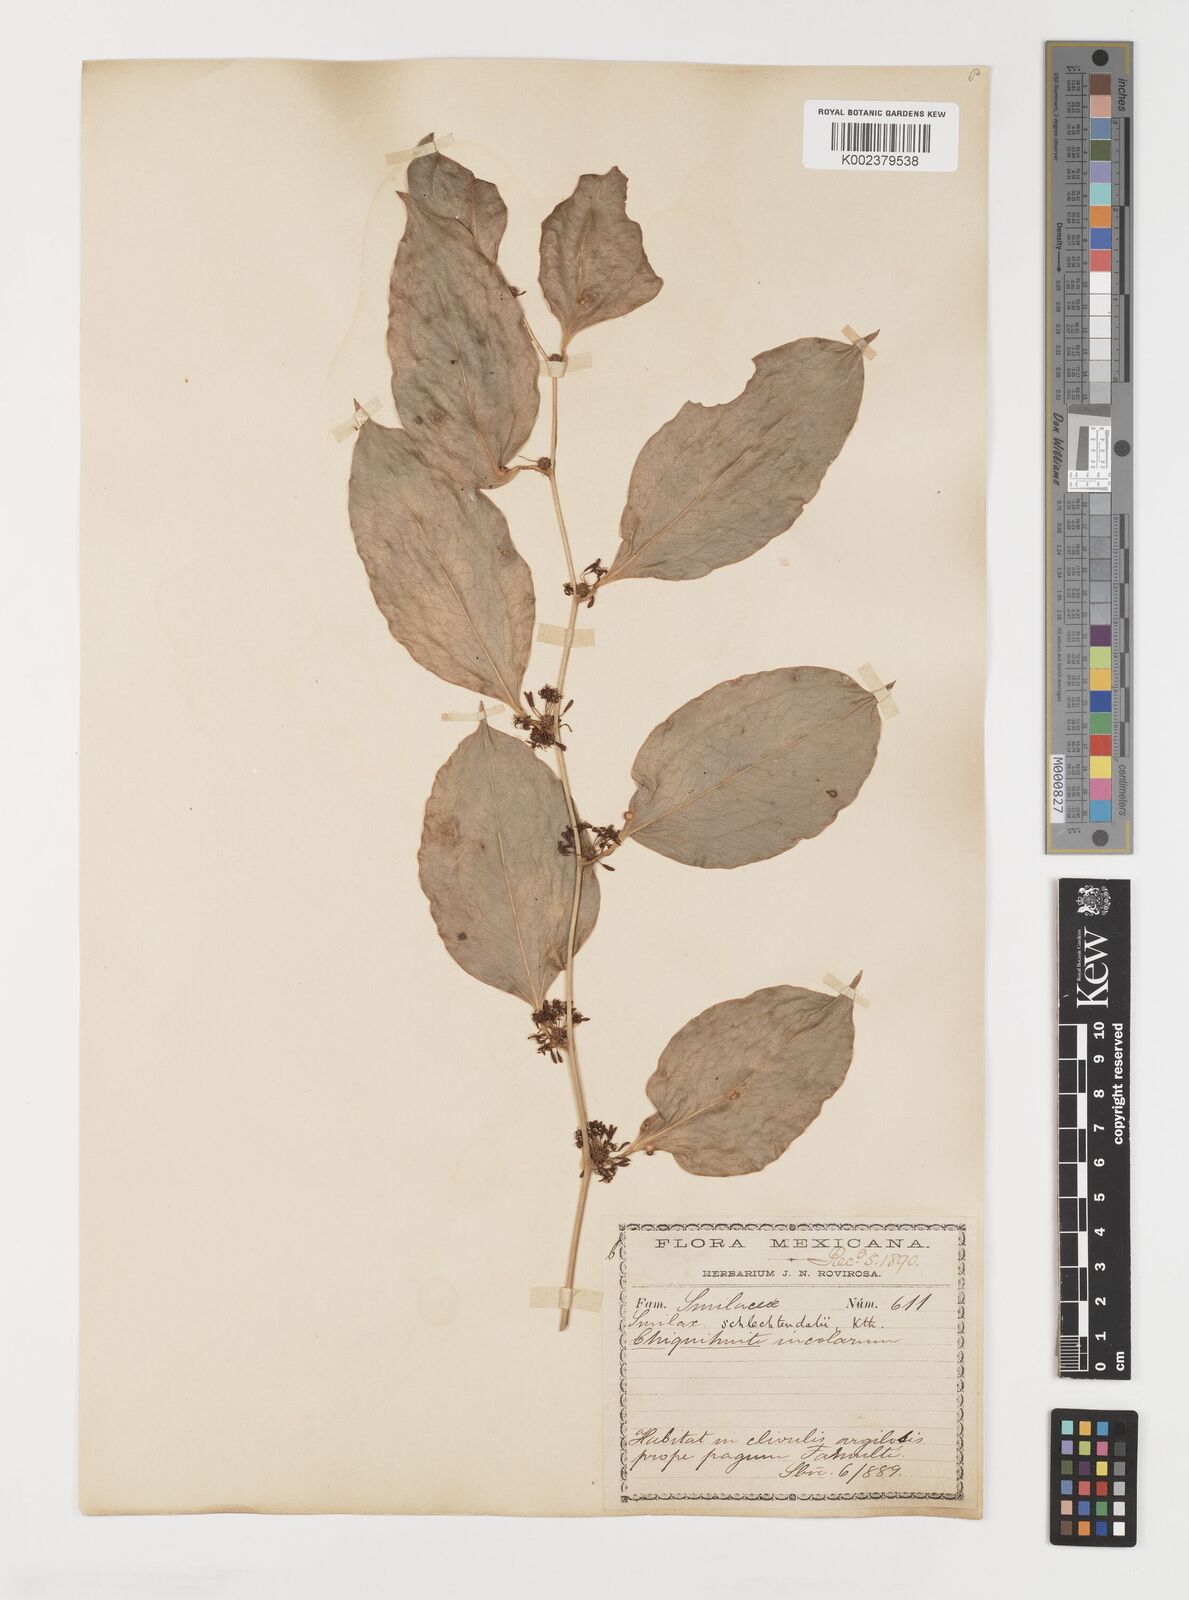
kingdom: Plantae
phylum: Tracheophyta
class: Liliopsida
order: Liliales
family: Smilacaceae
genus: Smilax
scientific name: Smilax laurifolia
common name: Bamboovine
